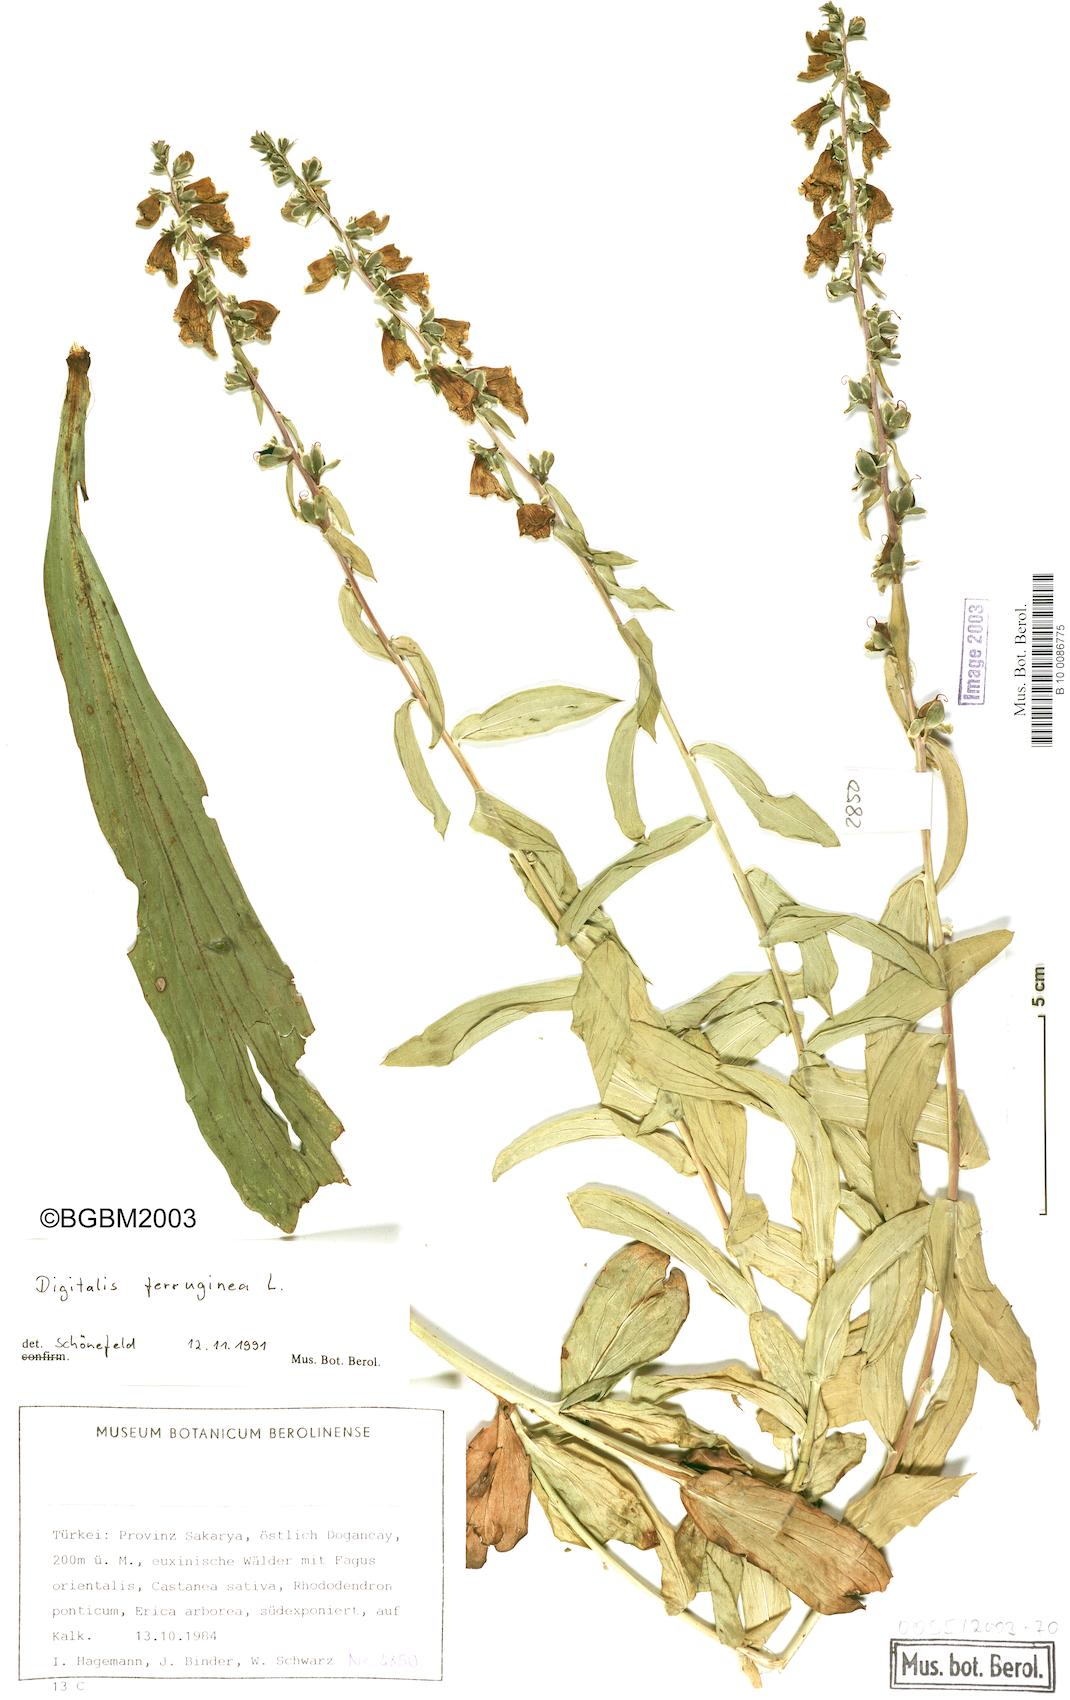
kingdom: Plantae
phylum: Tracheophyta
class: Magnoliopsida
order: Lamiales
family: Plantaginaceae
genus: Digitalis
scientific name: Digitalis ferruginea
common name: Rusty foxglove
